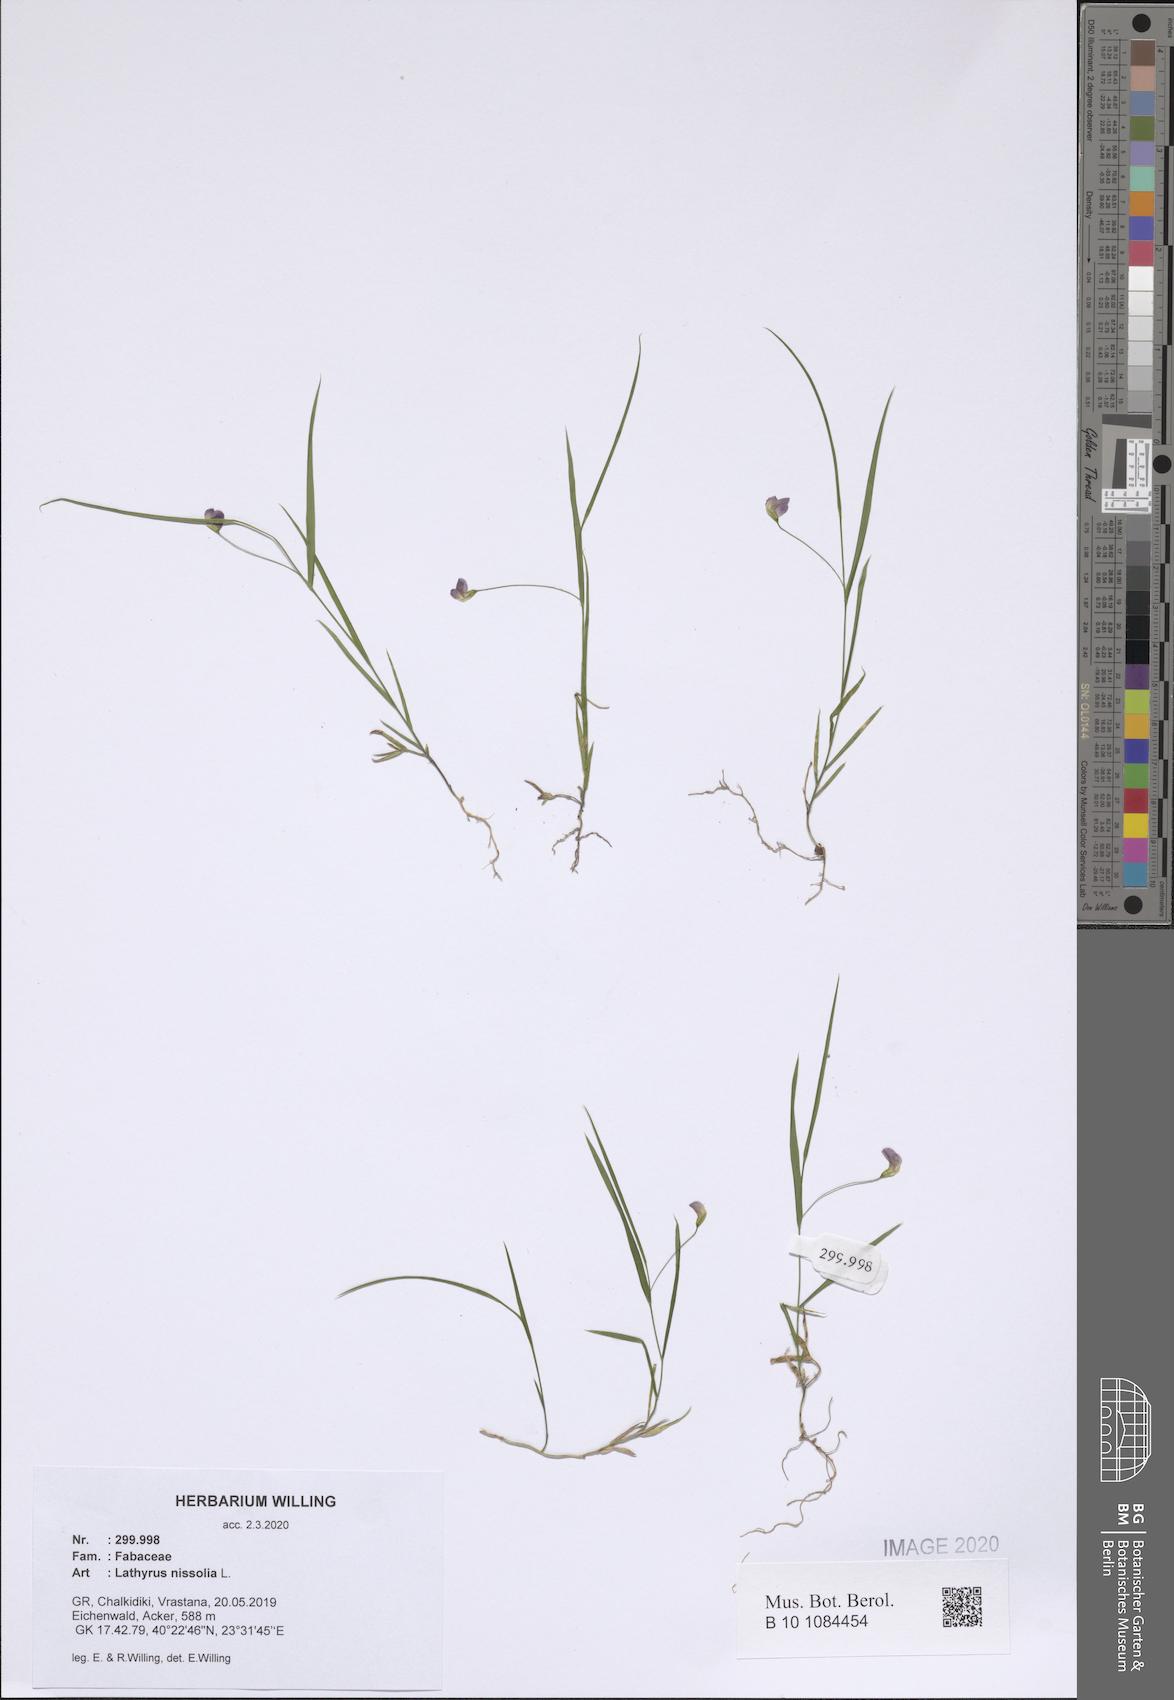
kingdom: Plantae
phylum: Tracheophyta
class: Magnoliopsida
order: Fabales
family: Fabaceae
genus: Lathyrus
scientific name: Lathyrus nissolia
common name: Grass vetchling
